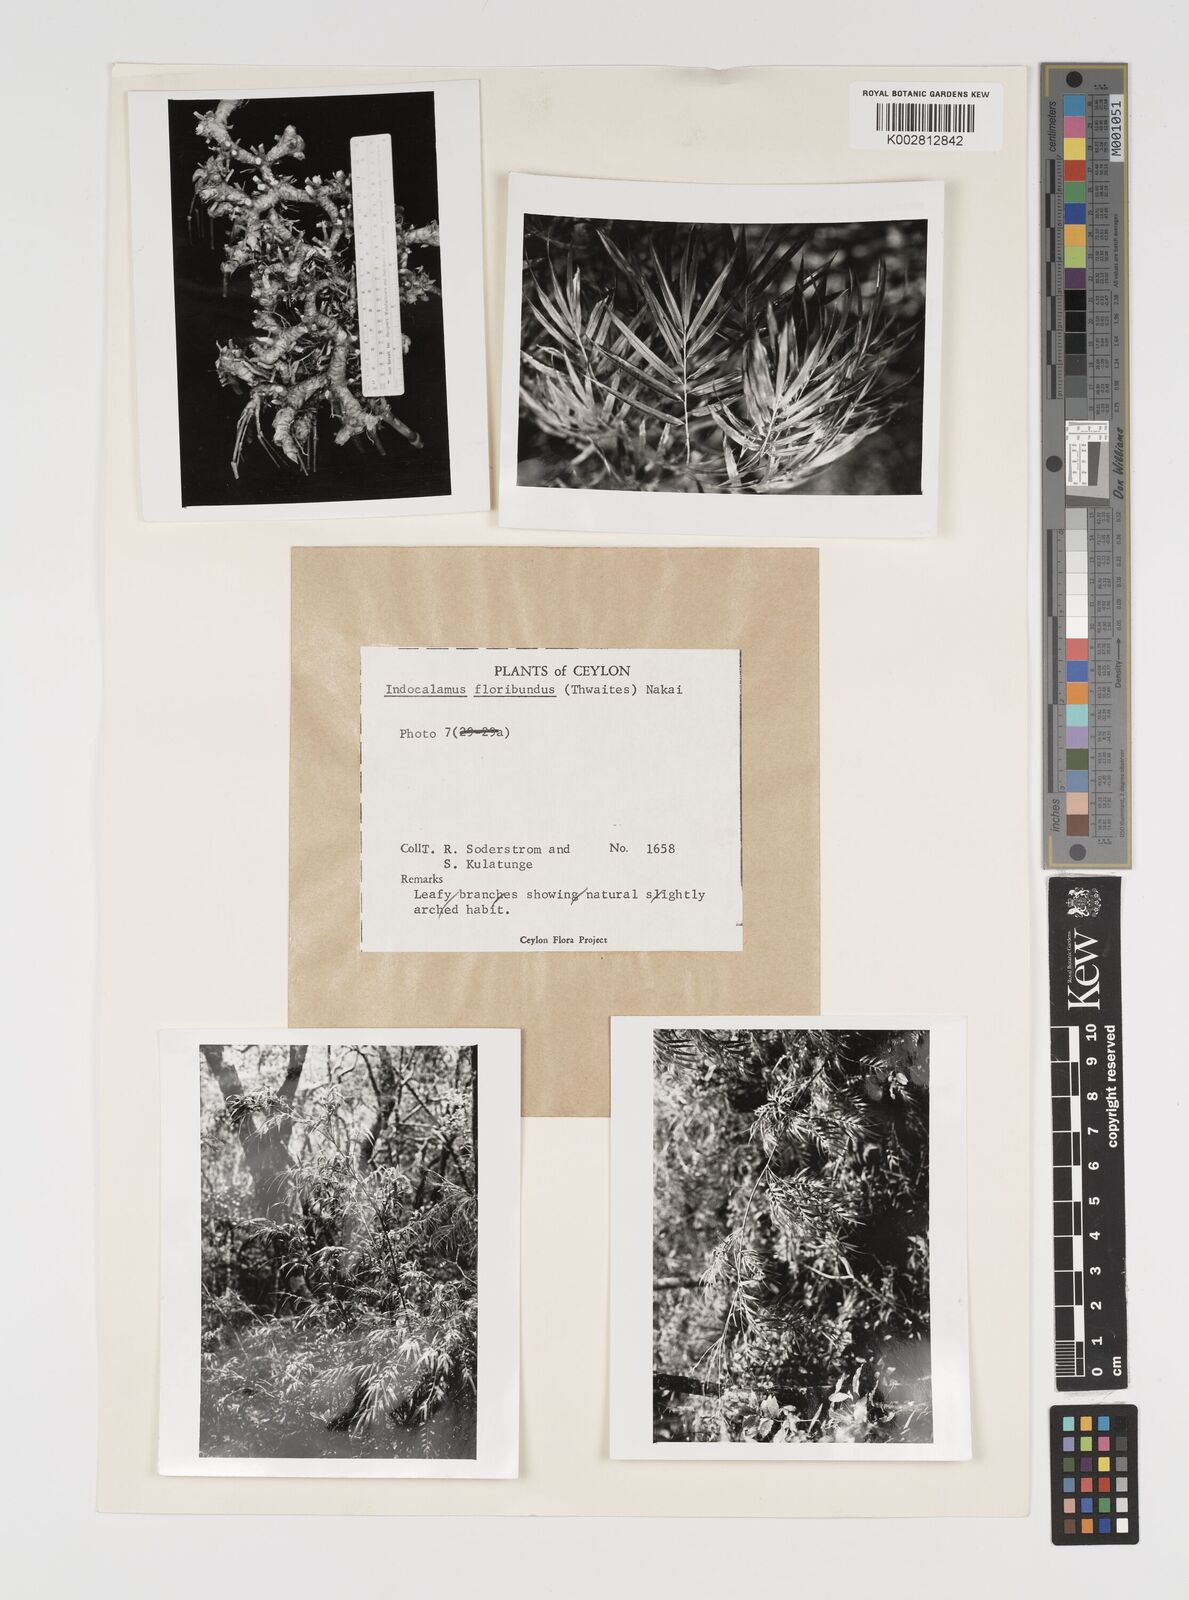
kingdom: Plantae
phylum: Tracheophyta
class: Liliopsida
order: Poales
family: Poaceae
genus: Kuruna
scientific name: Kuruna floribunda
